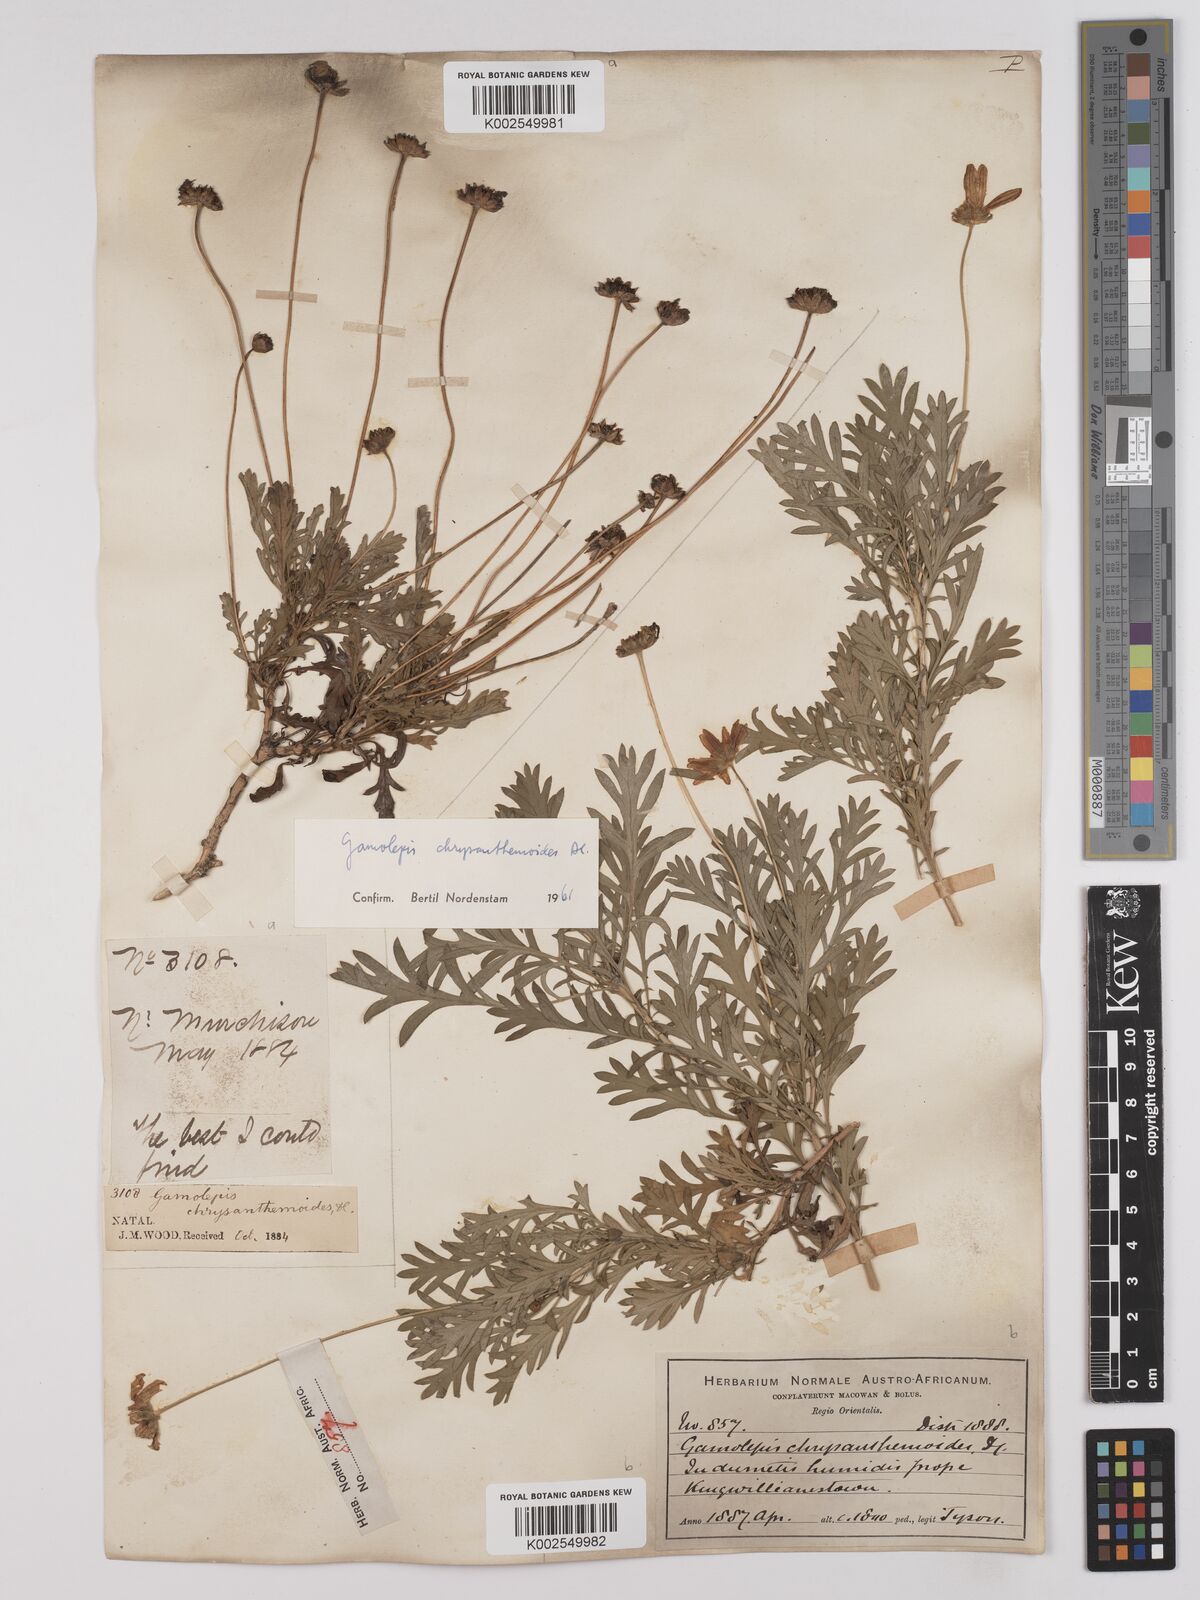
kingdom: Plantae
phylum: Tracheophyta
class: Magnoliopsida
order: Asterales
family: Asteraceae
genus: Euryops
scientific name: Euryops chrysanthemoides
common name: Bull's eye
